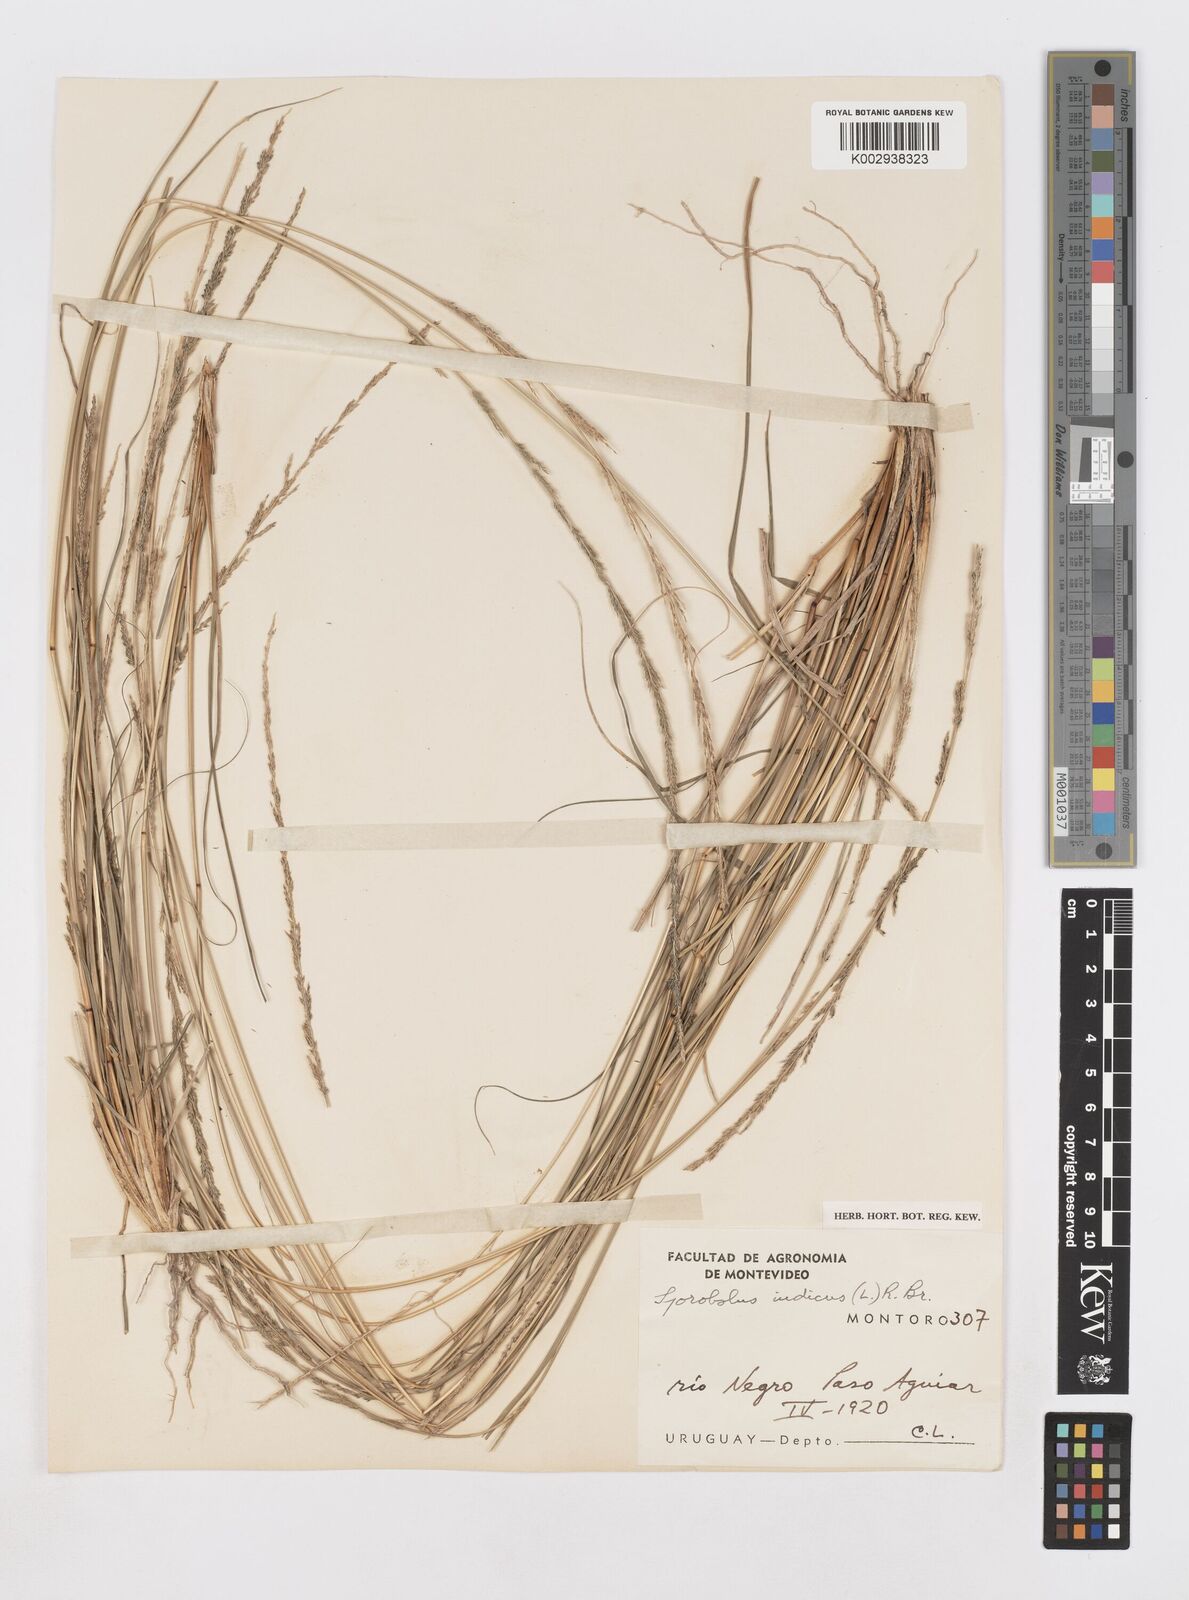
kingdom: Plantae
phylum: Tracheophyta
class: Liliopsida
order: Poales
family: Poaceae
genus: Sporobolus
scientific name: Sporobolus indicus
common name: Smut grass
